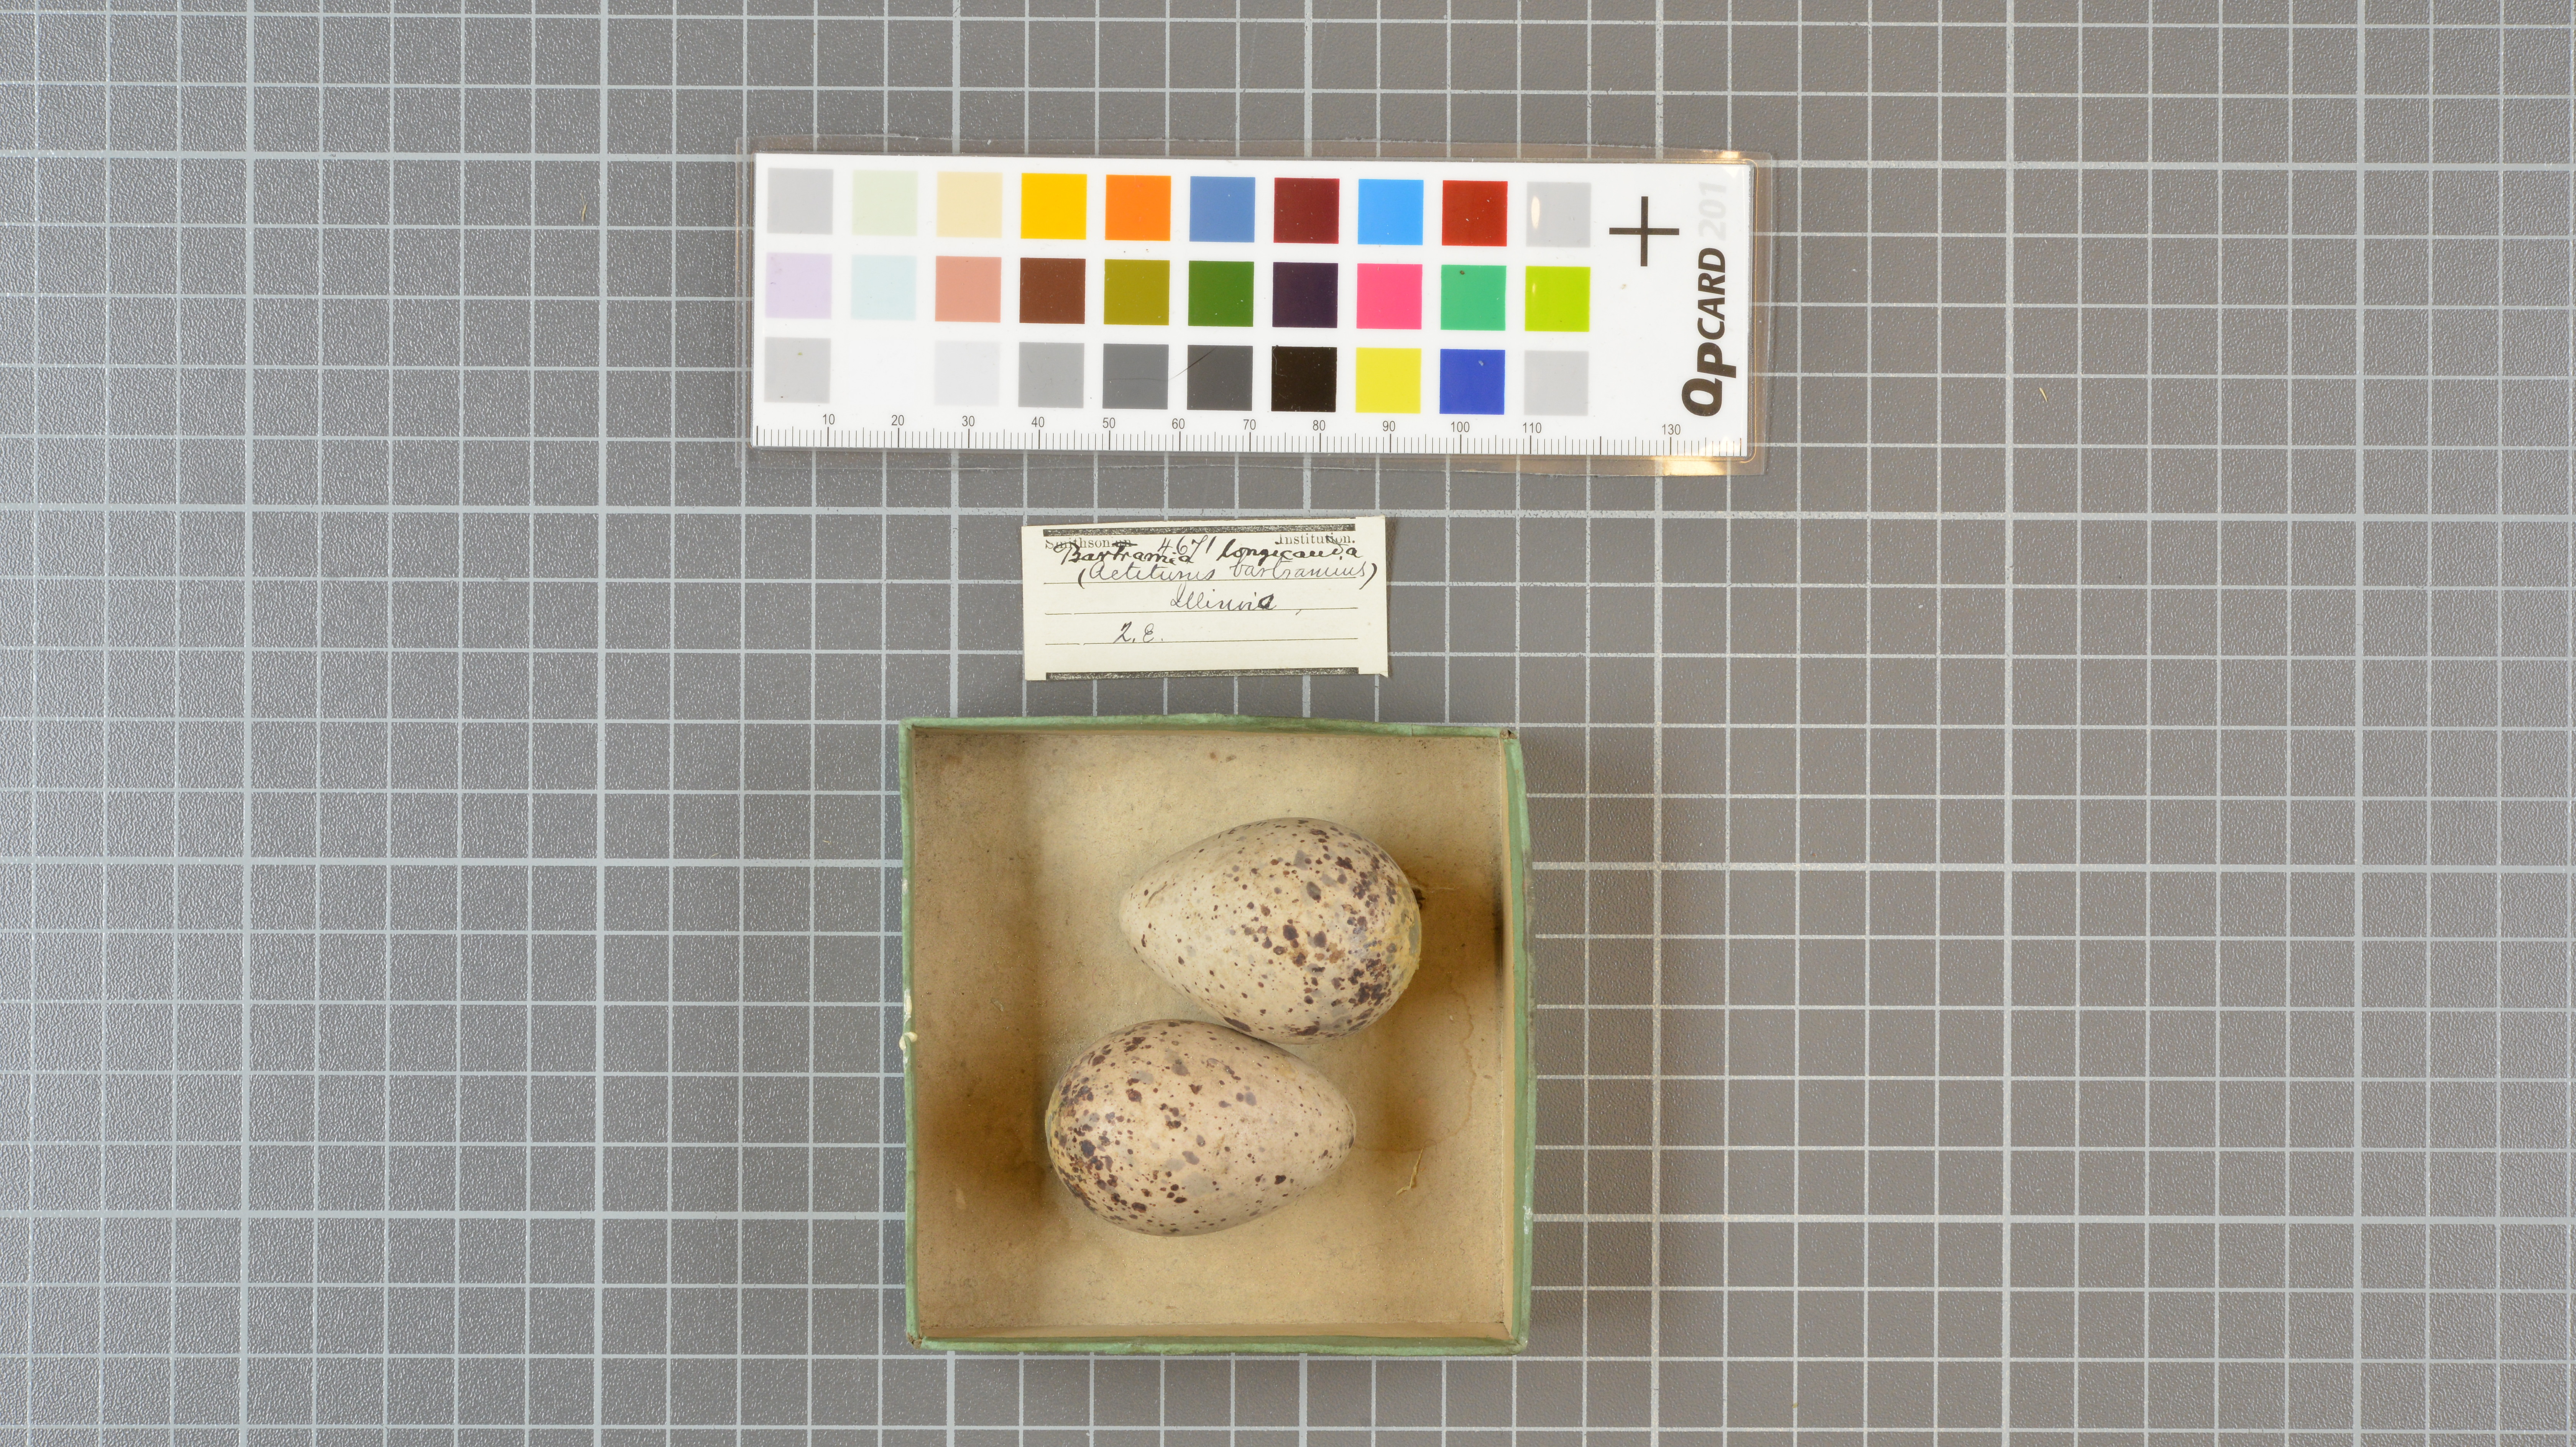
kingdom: Animalia
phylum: Chordata
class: Aves
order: Charadriiformes
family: Scolopacidae
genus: Bartramia
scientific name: Bartramia longicauda
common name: Upland sandpiper
